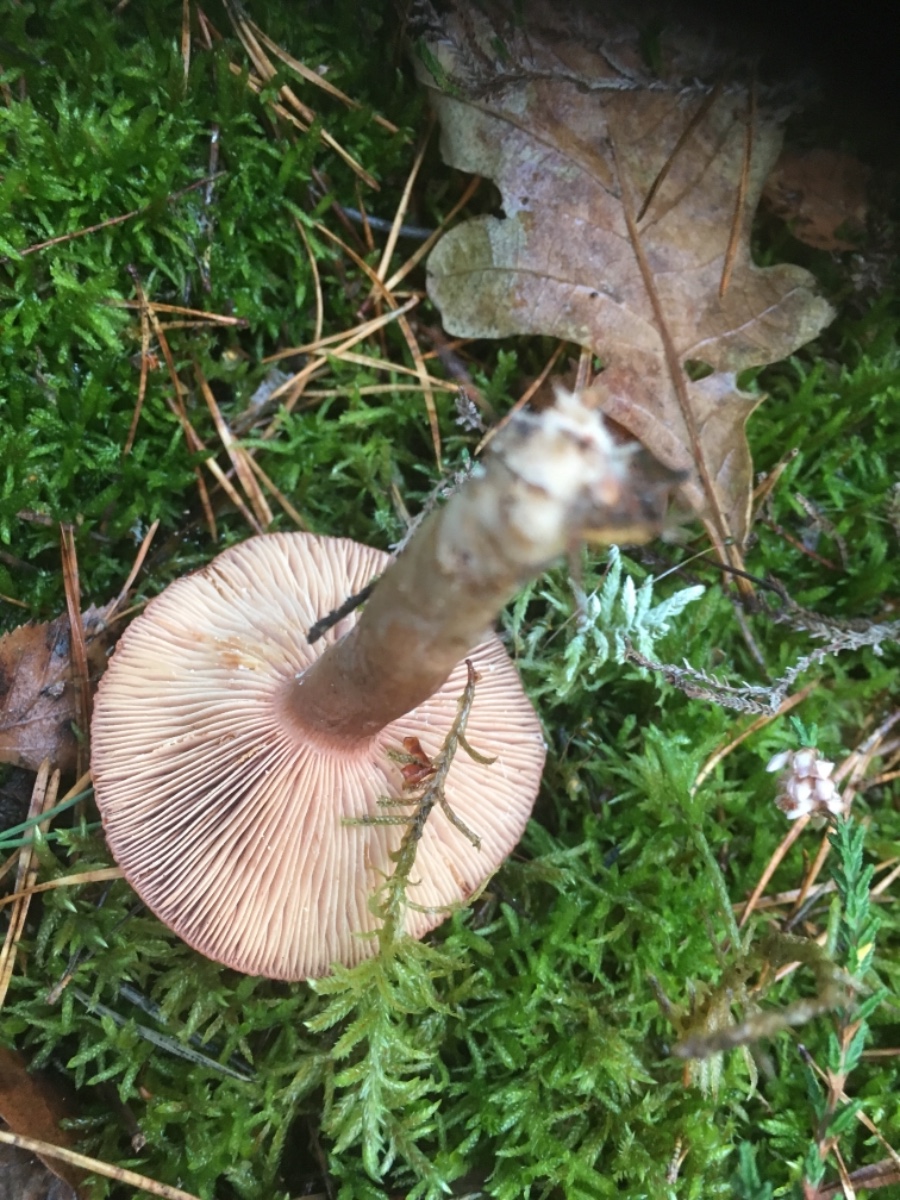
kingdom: Fungi
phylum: Basidiomycota
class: Agaricomycetes
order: Russulales
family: Russulaceae
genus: Lactarius
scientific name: Lactarius rufus
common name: rødbrun mælkehat
